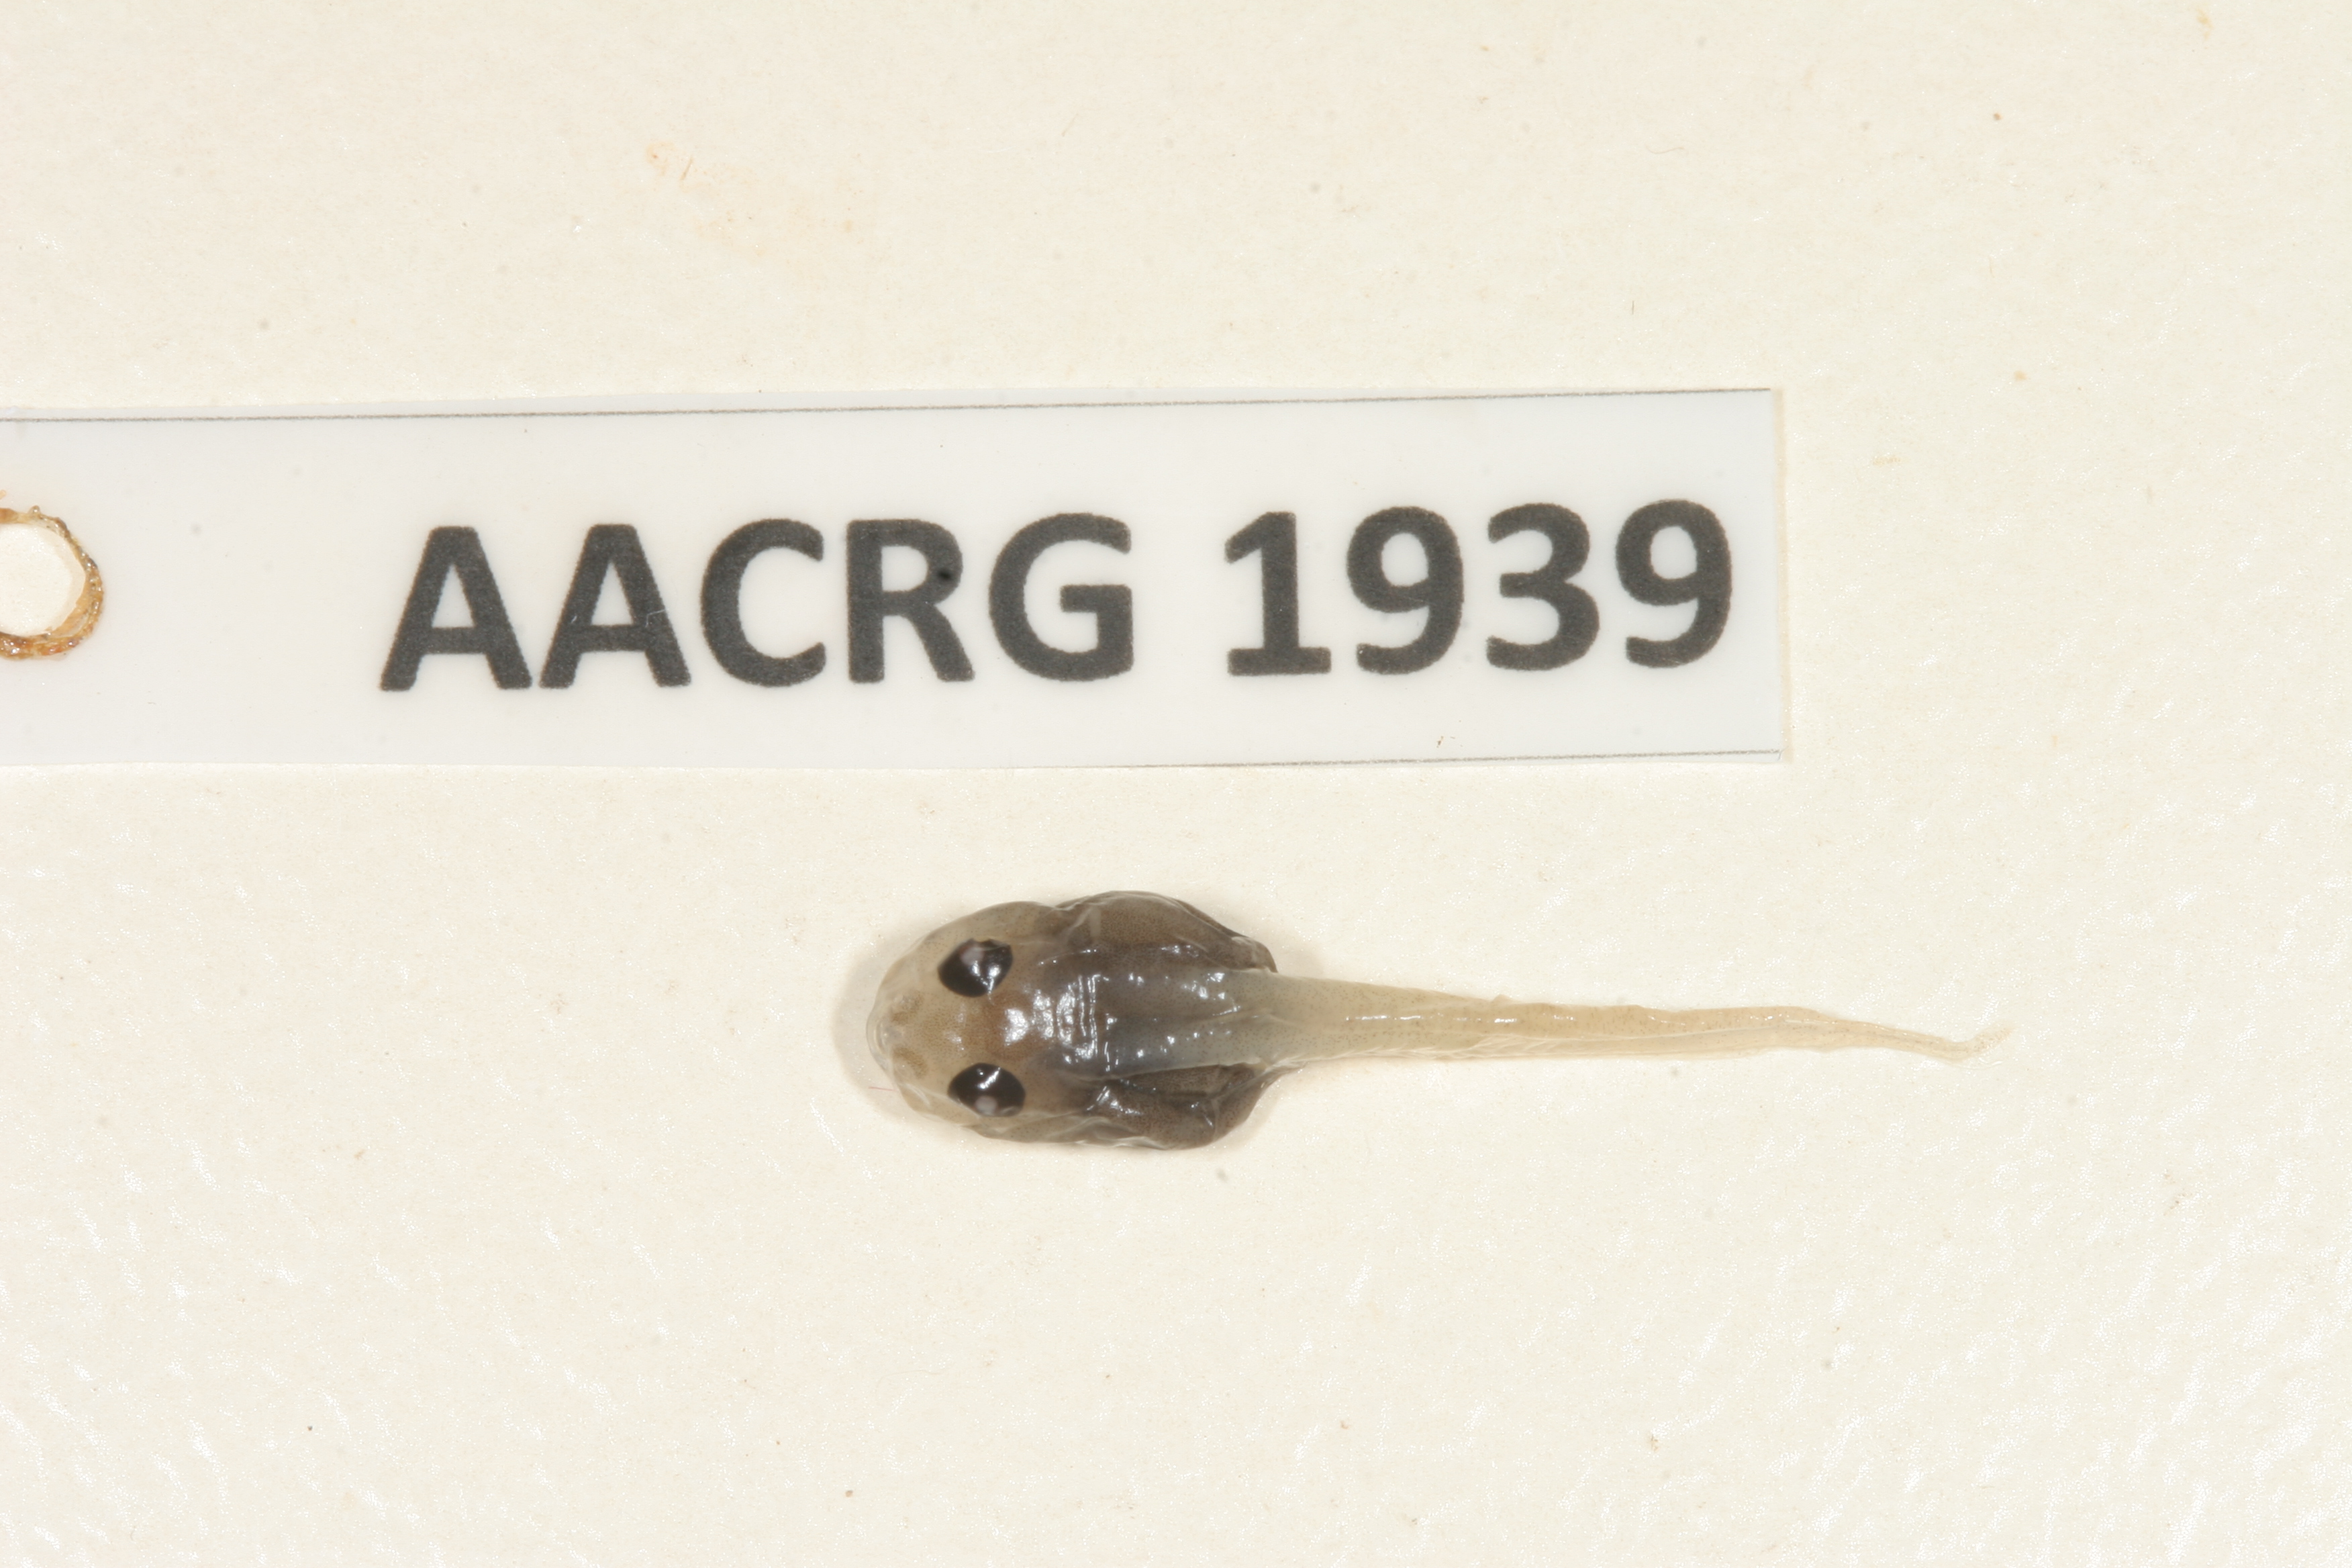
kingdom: Animalia
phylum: Chordata
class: Amphibia
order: Anura
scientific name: Anura
